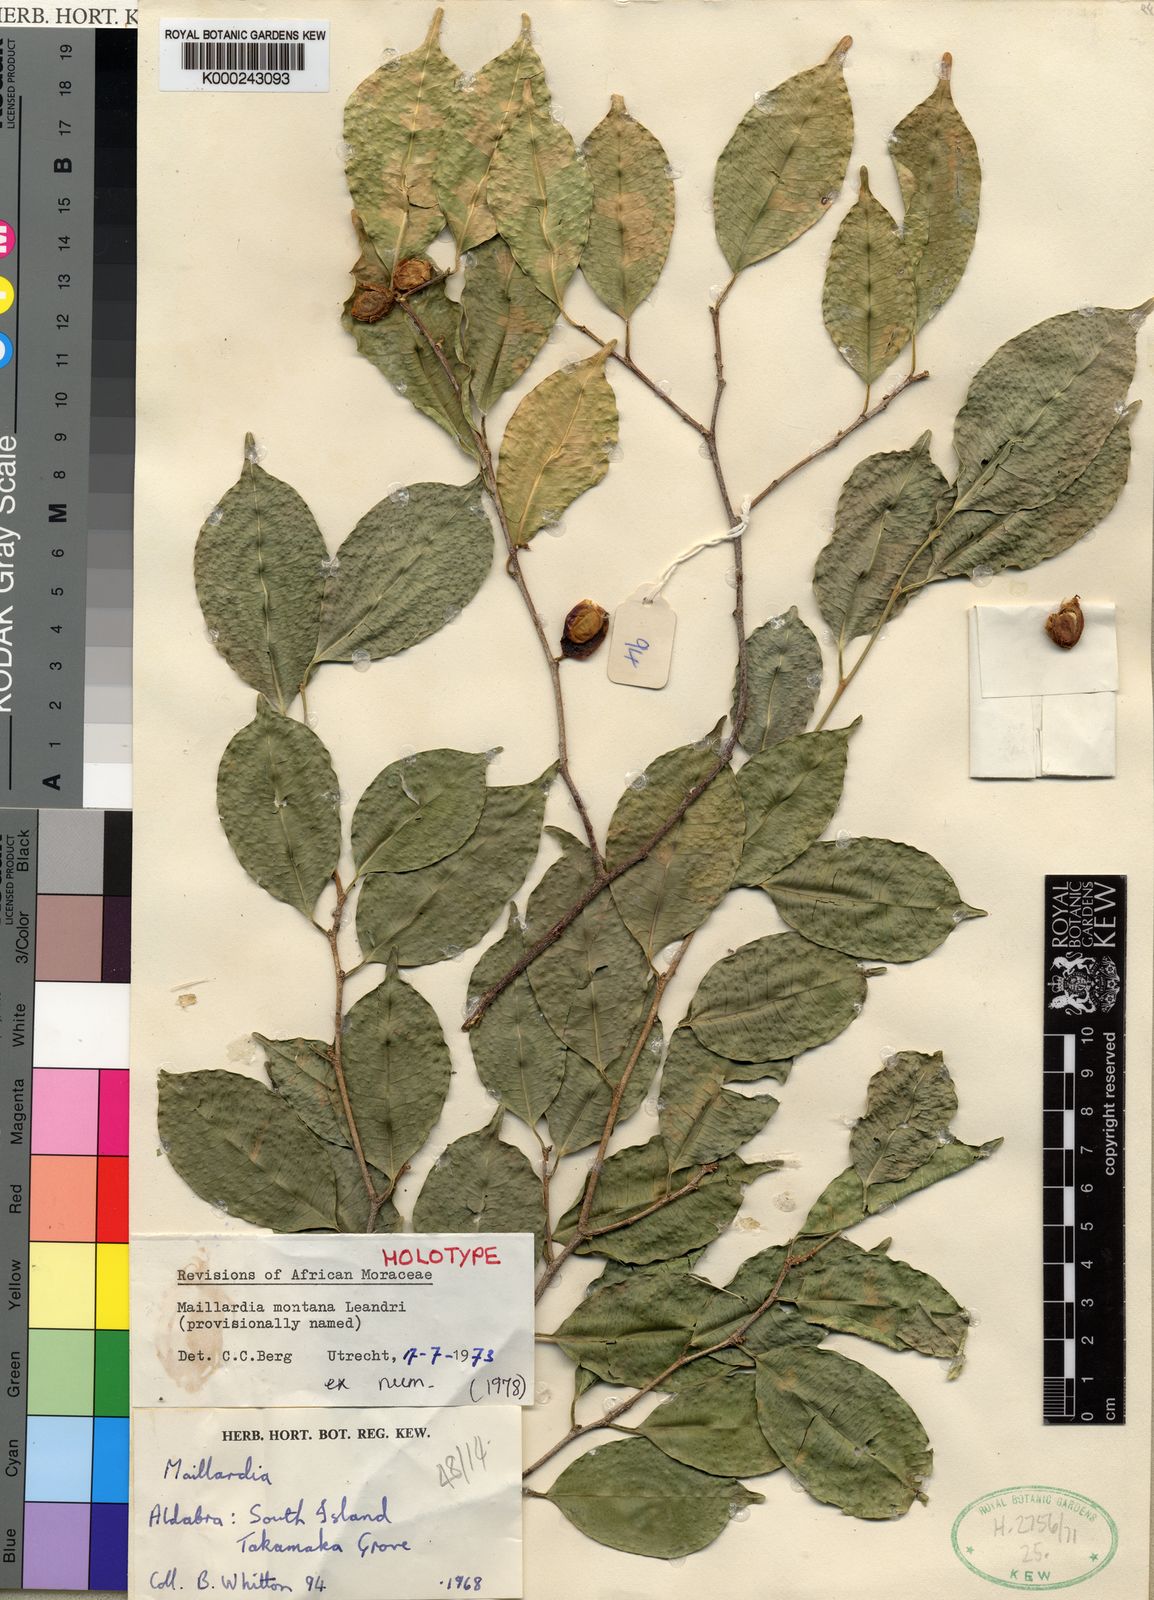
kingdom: Plantae
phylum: Tracheophyta
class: Magnoliopsida
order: Rosales
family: Moraceae
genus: Maillardia
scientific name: Maillardia borbonica
